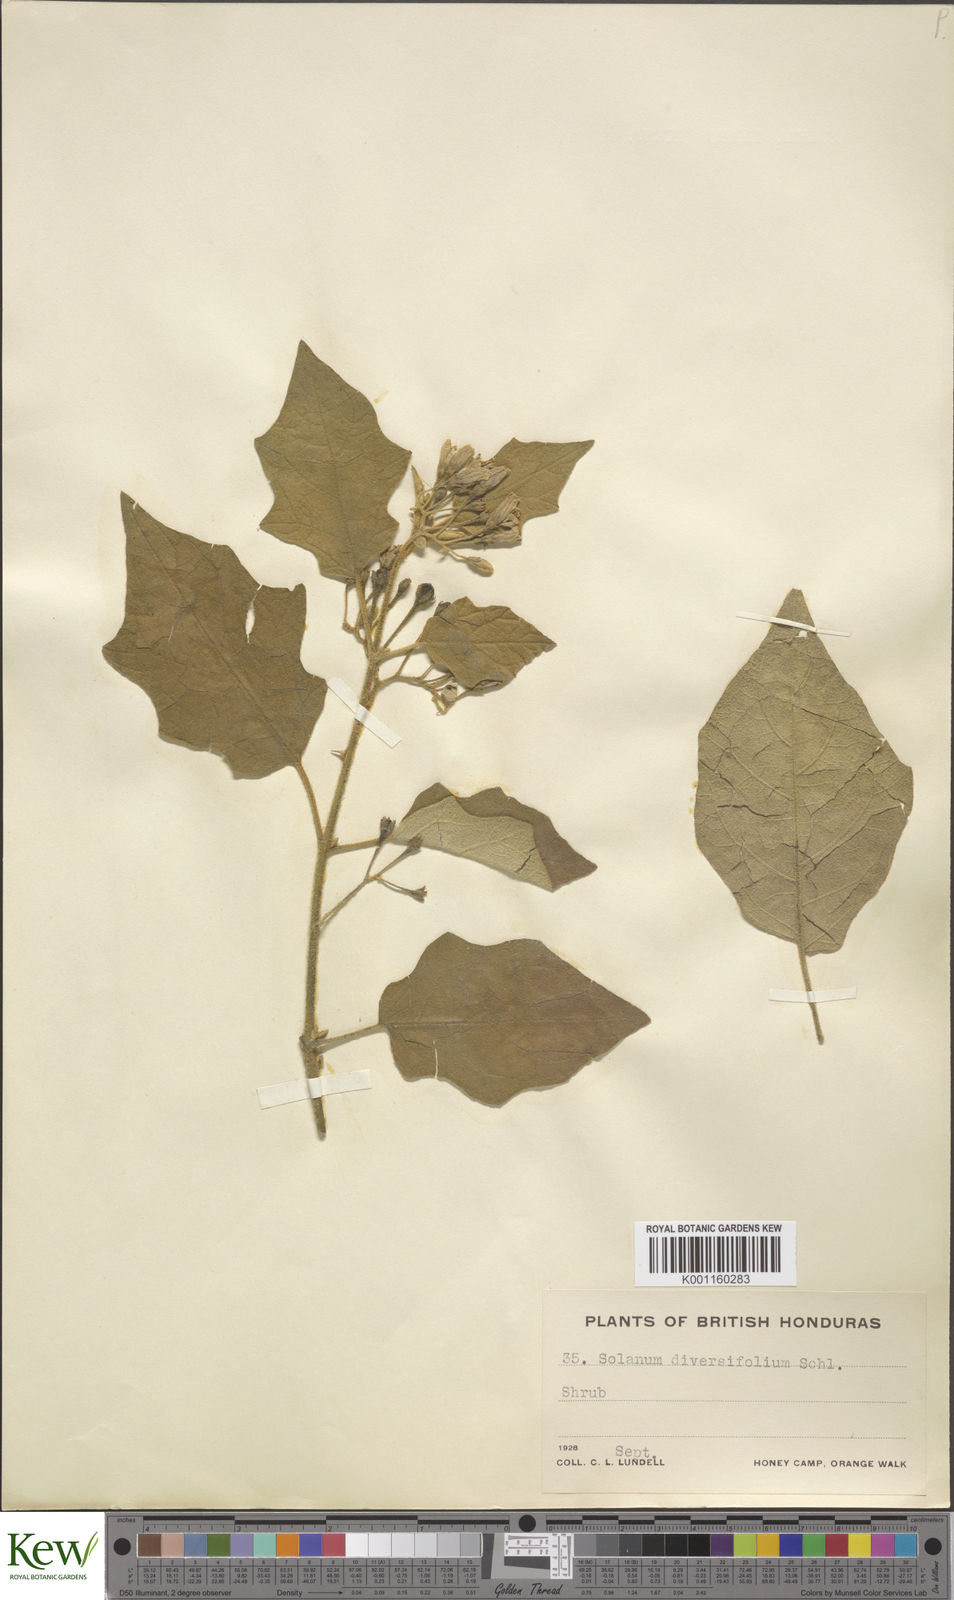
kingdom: Plantae
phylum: Tracheophyta
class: Magnoliopsida
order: Solanales
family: Solanaceae
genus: Solanum
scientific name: Solanum melissarum
